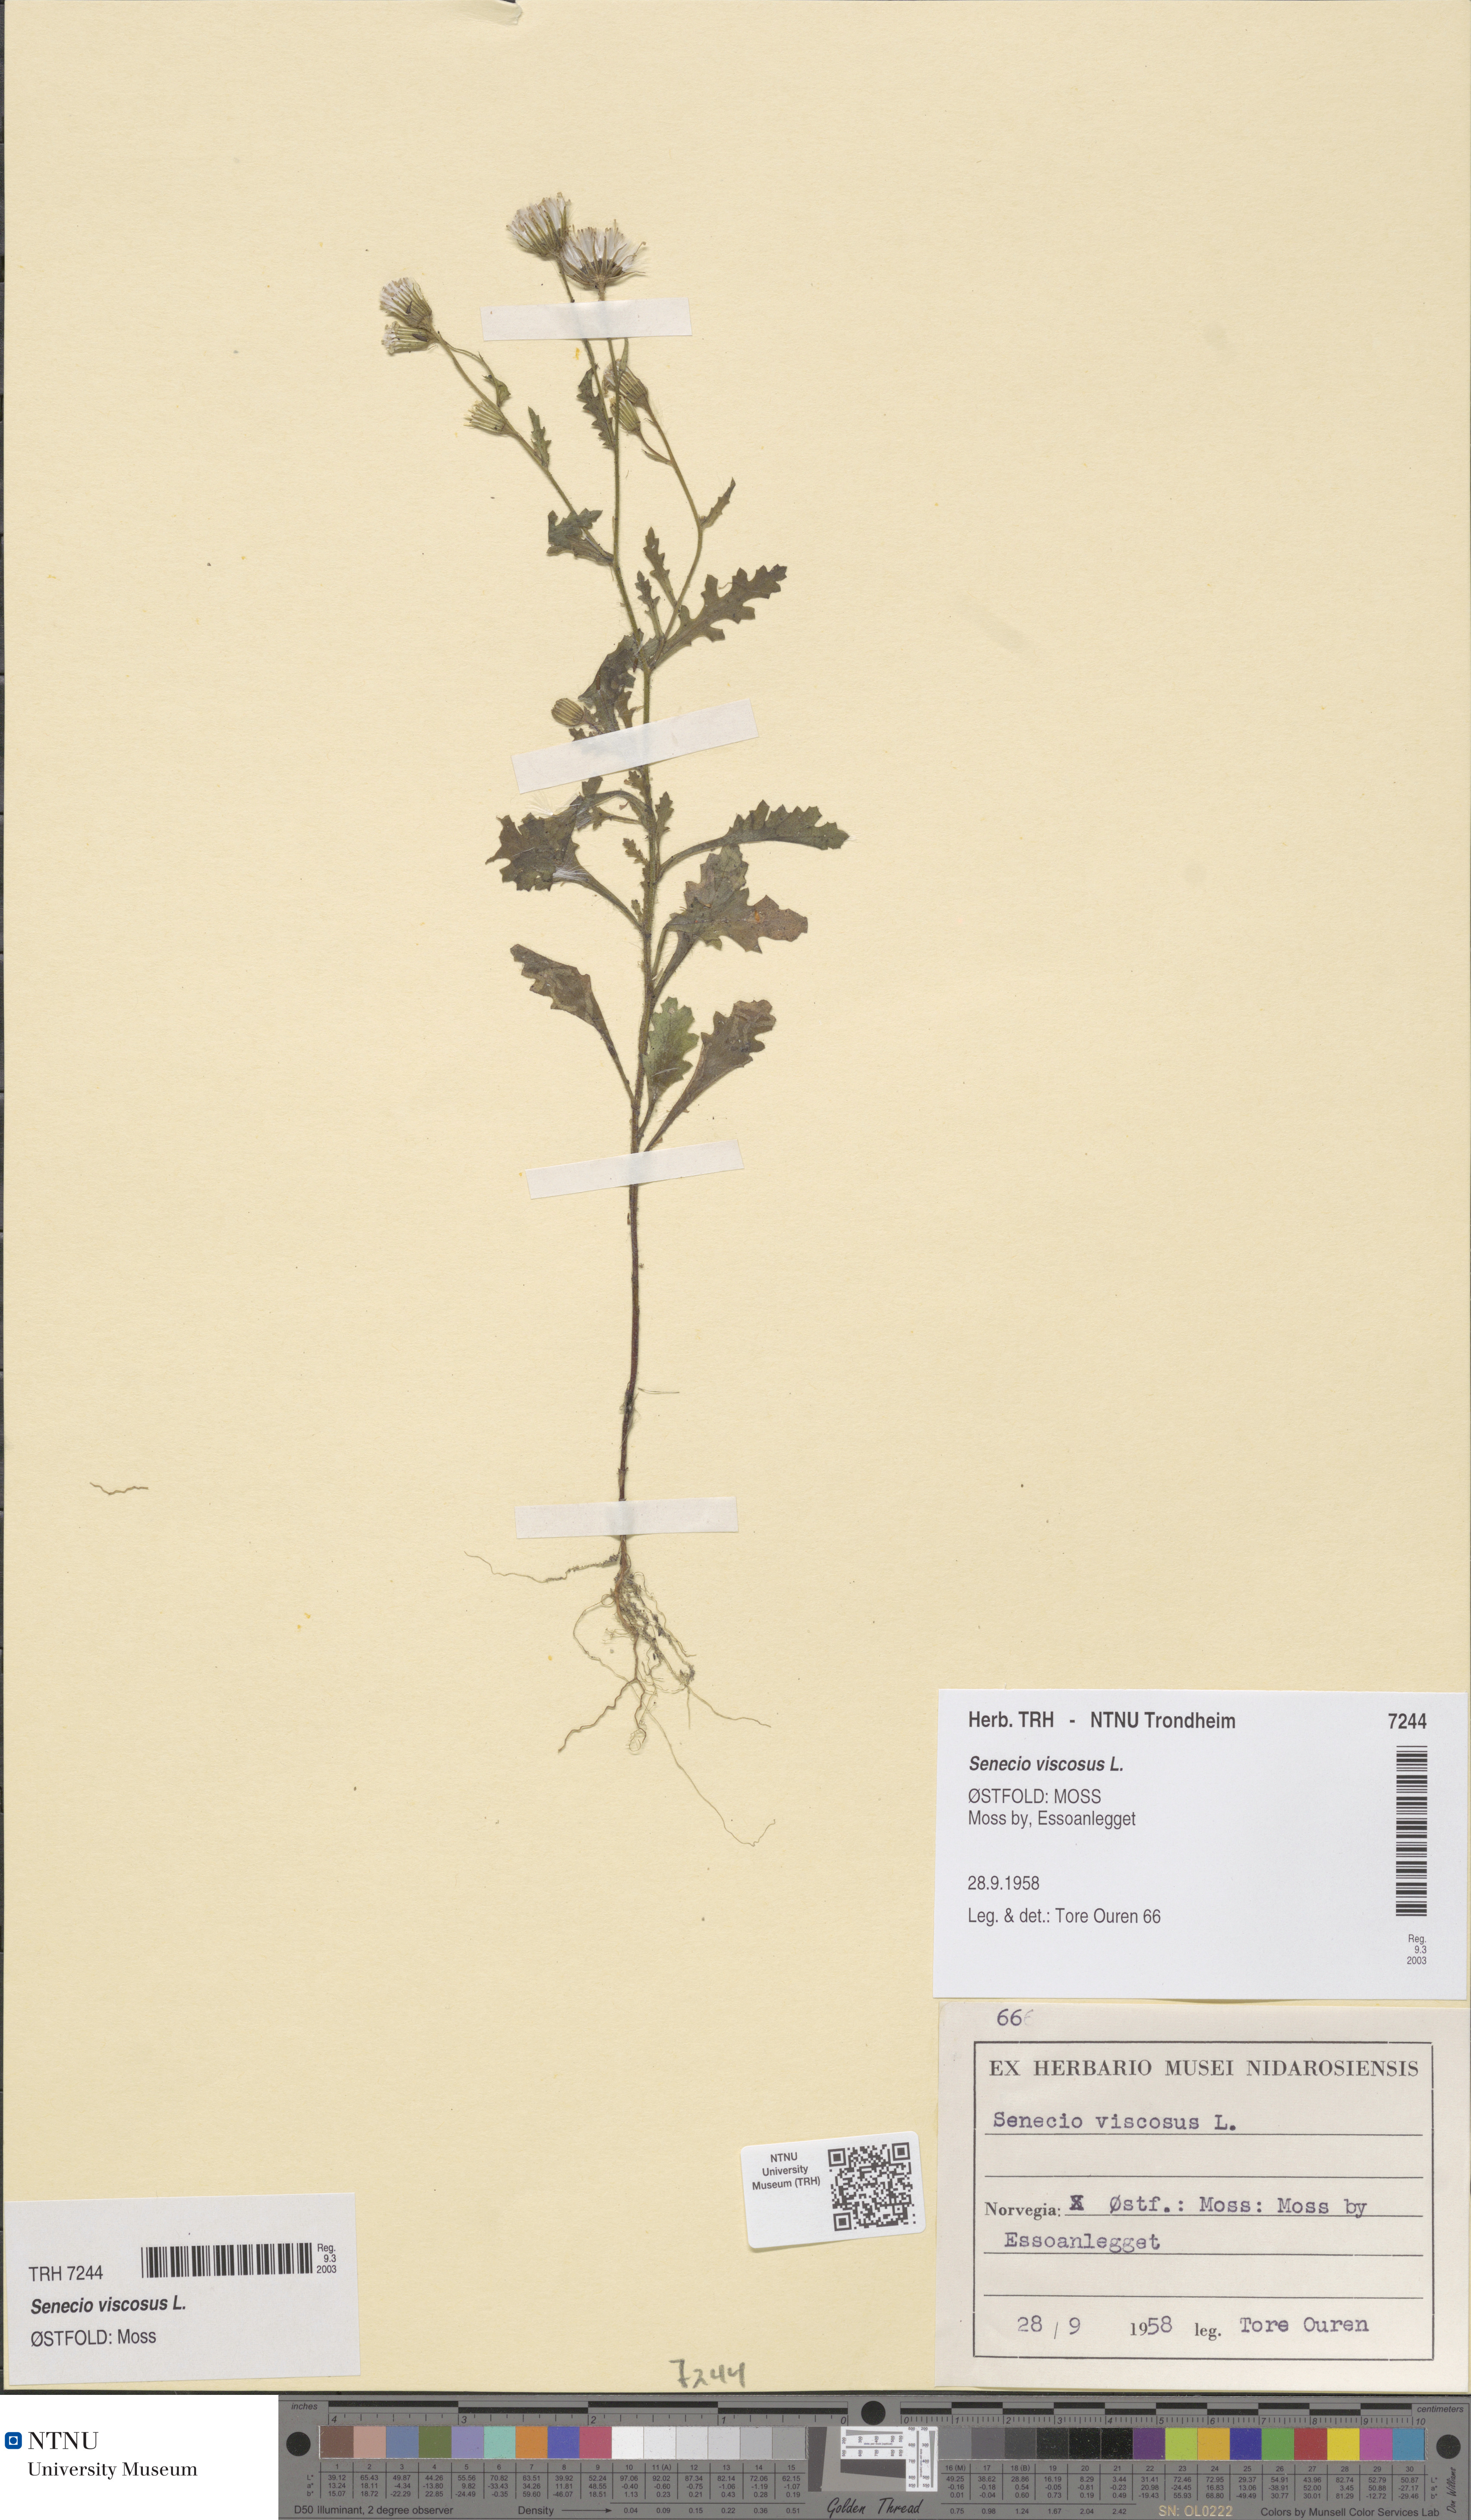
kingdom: Plantae
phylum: Tracheophyta
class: Magnoliopsida
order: Asterales
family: Asteraceae
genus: Senecio
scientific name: Senecio viscosus
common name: Sticky groundsel
